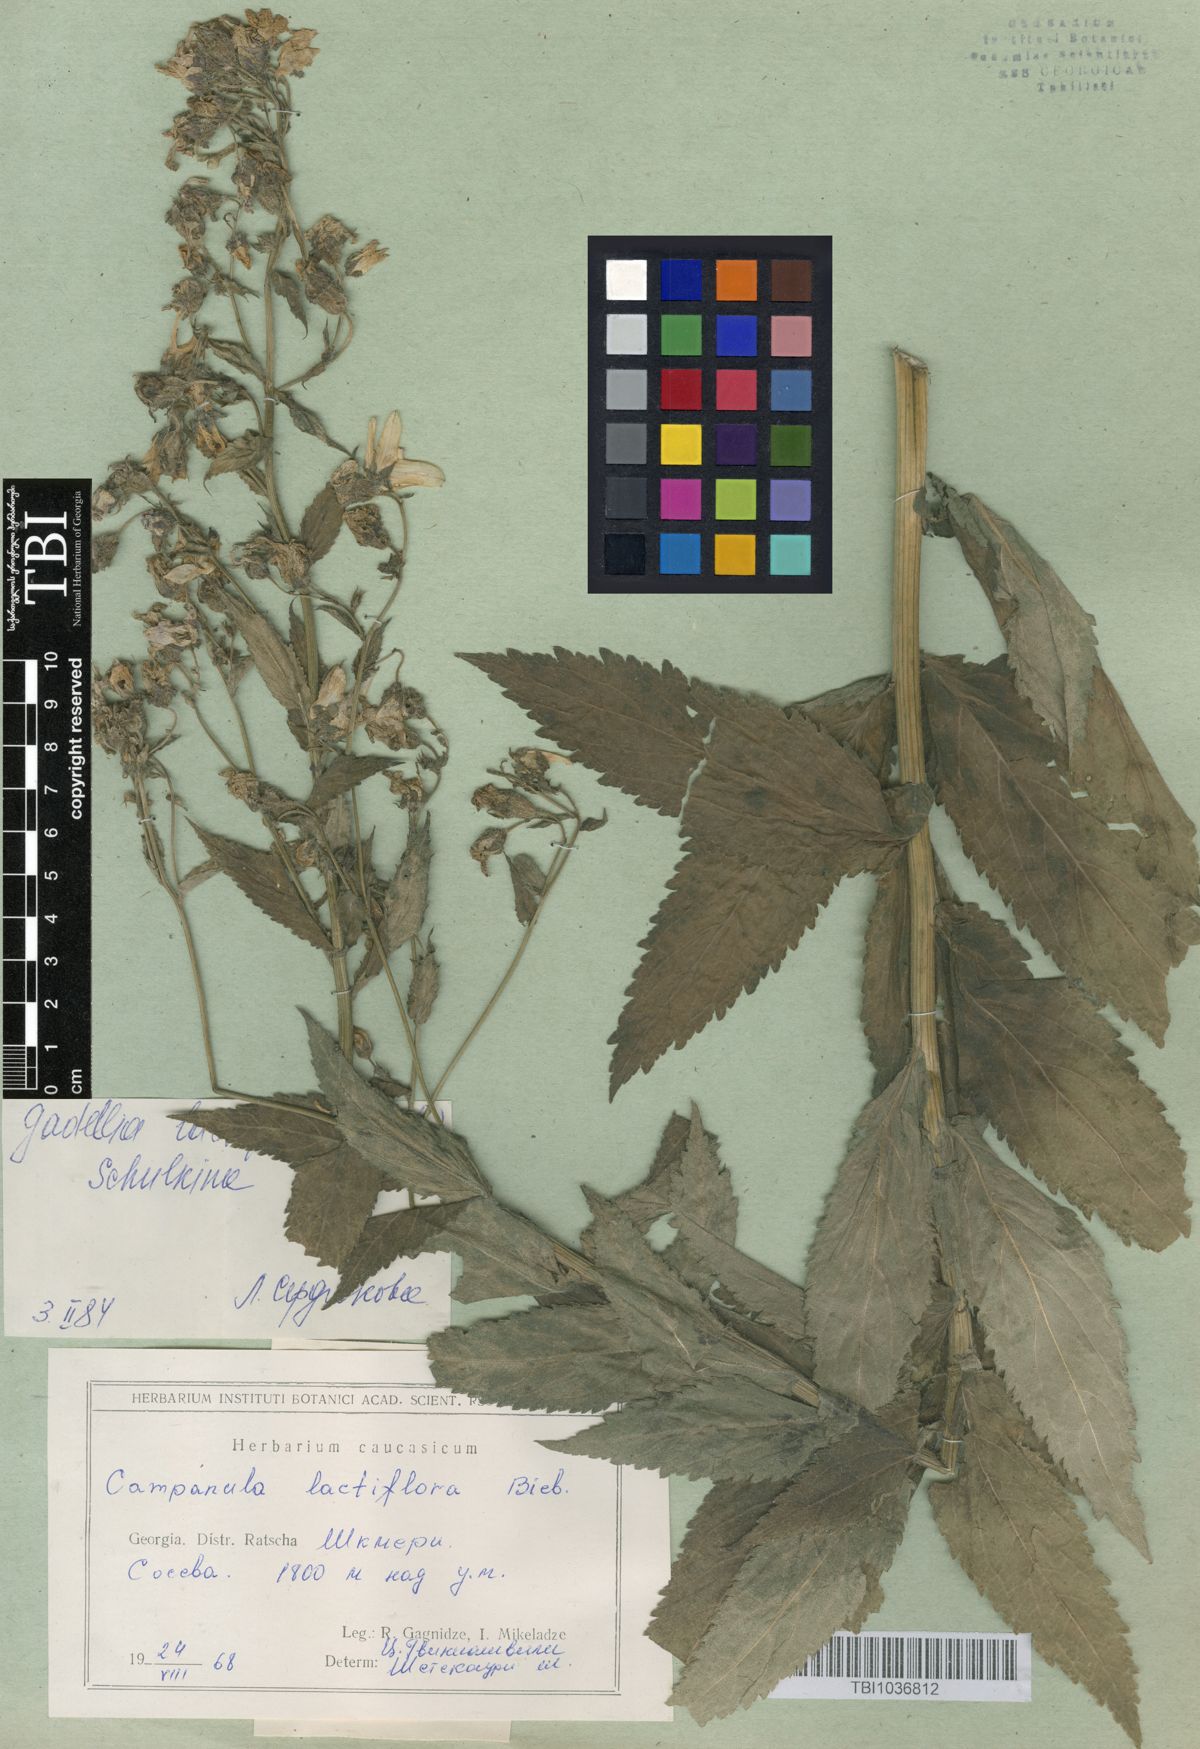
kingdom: Plantae
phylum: Tracheophyta
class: Magnoliopsida
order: Asterales
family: Campanulaceae
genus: Campanula
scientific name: Campanula lactiflora
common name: Milky bellflower
